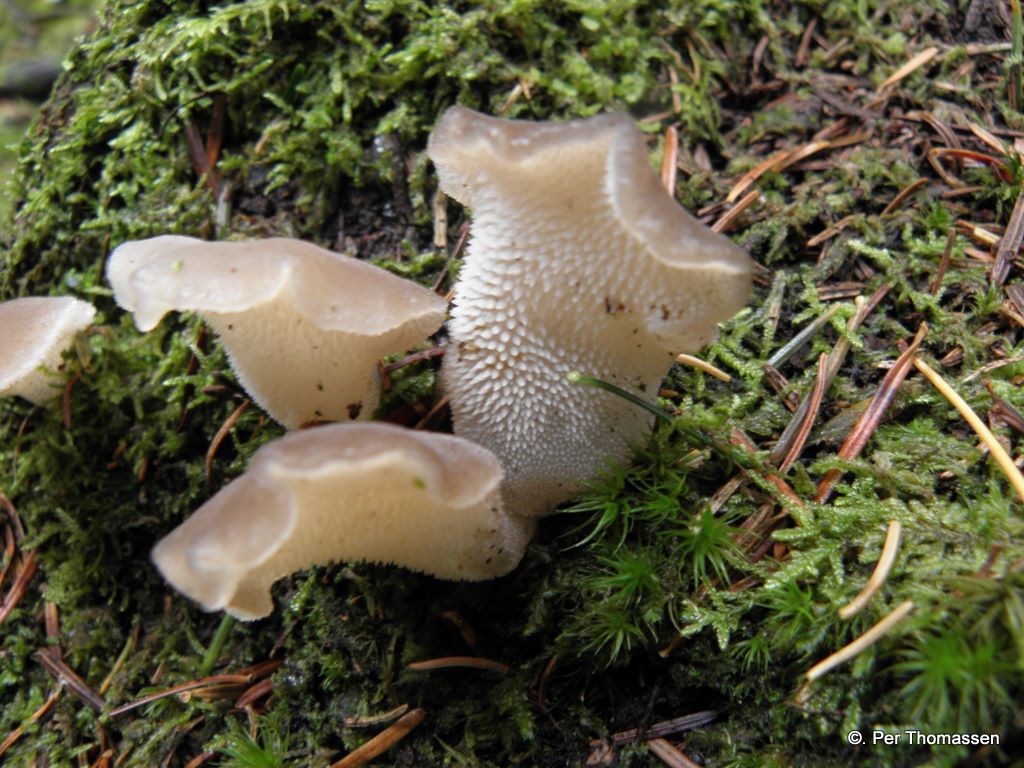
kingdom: Fungi
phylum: Basidiomycota
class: Agaricomycetes
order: Auriculariales
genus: Pseudohydnum
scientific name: Pseudohydnum gelatinosum
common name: bævretand
